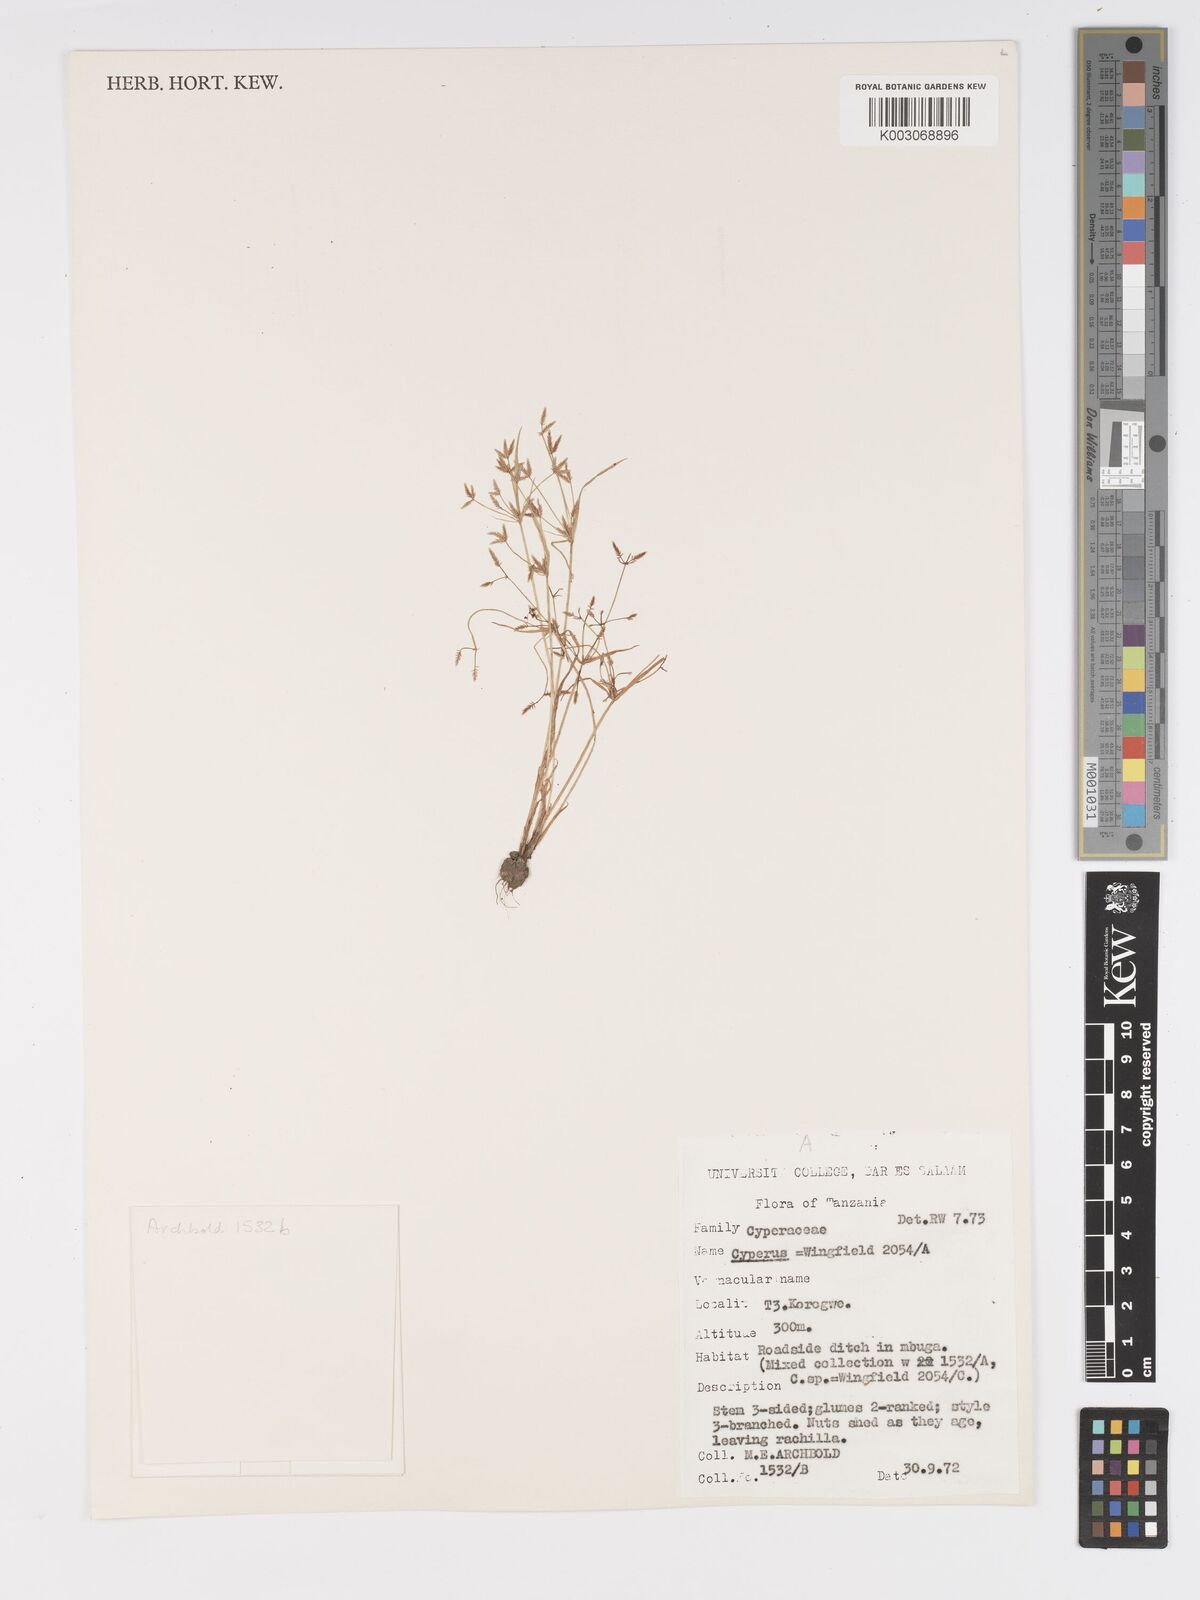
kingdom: Plantae
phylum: Tracheophyta
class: Liliopsida
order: Poales
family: Cyperaceae
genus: Cyperus
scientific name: Cyperus
